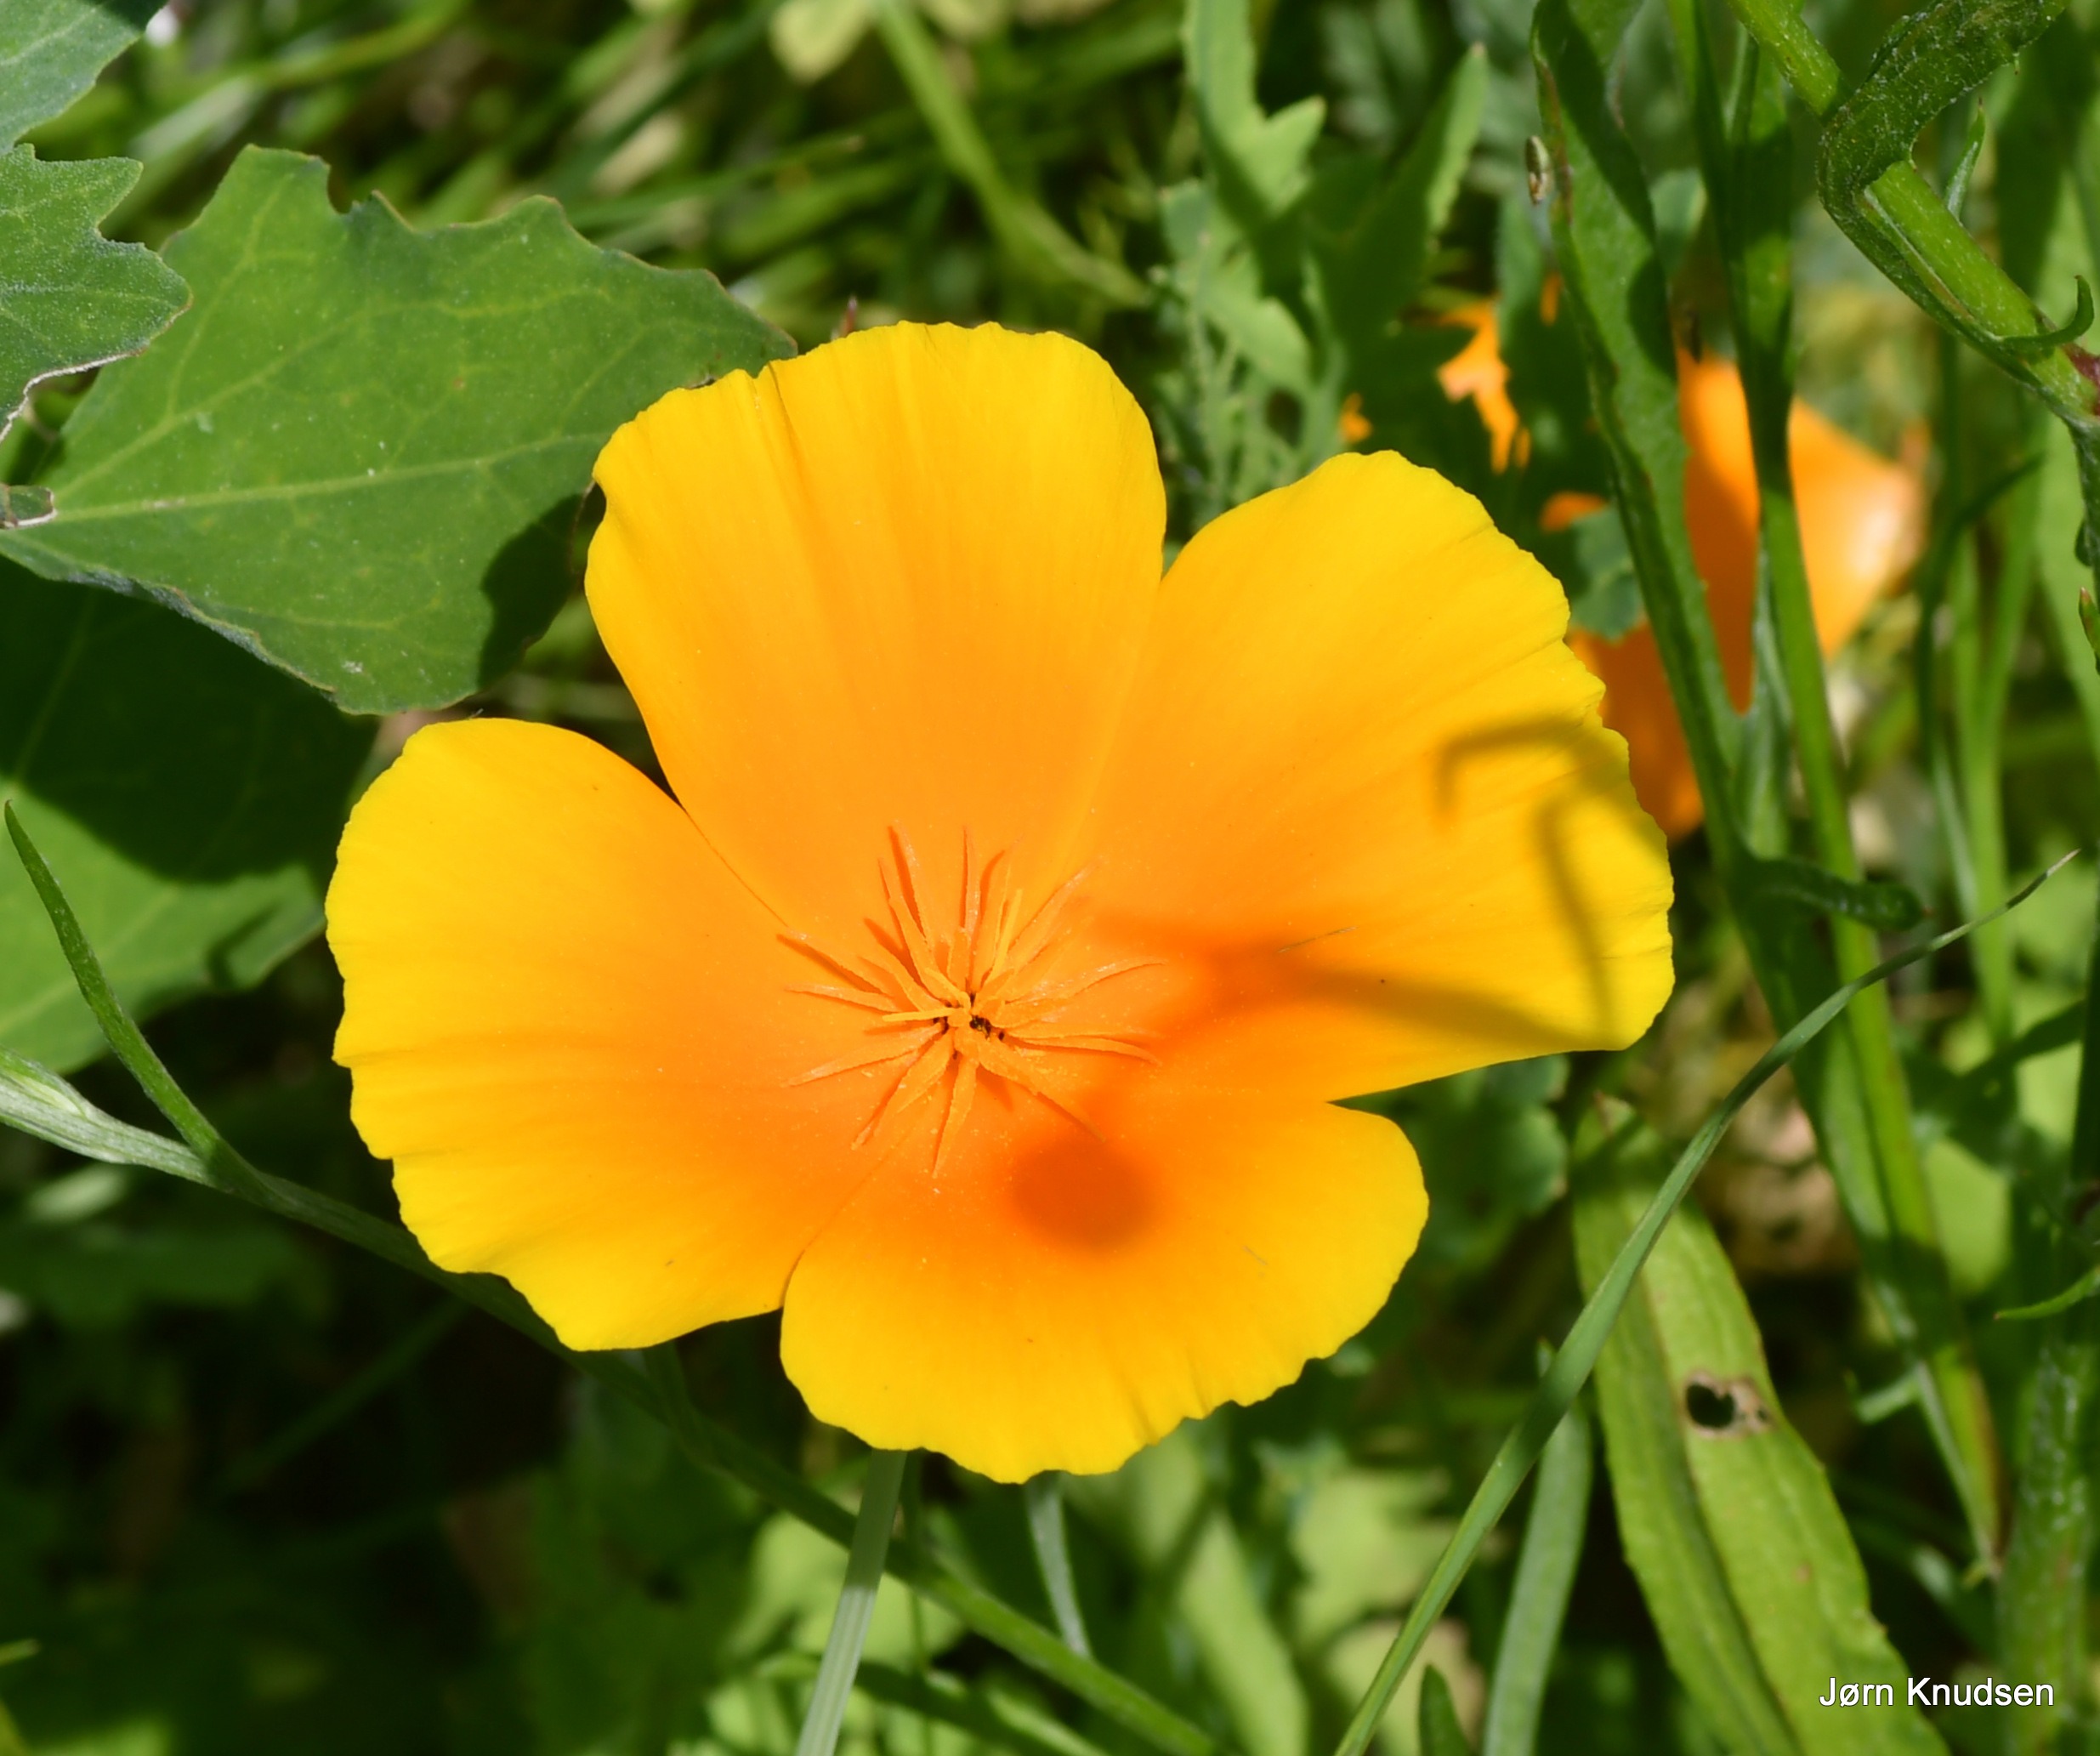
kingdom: Plantae
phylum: Tracheophyta
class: Magnoliopsida
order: Ranunculales
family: Papaveraceae
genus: Eschscholzia
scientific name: Eschscholzia californica
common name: Guldvalmue
